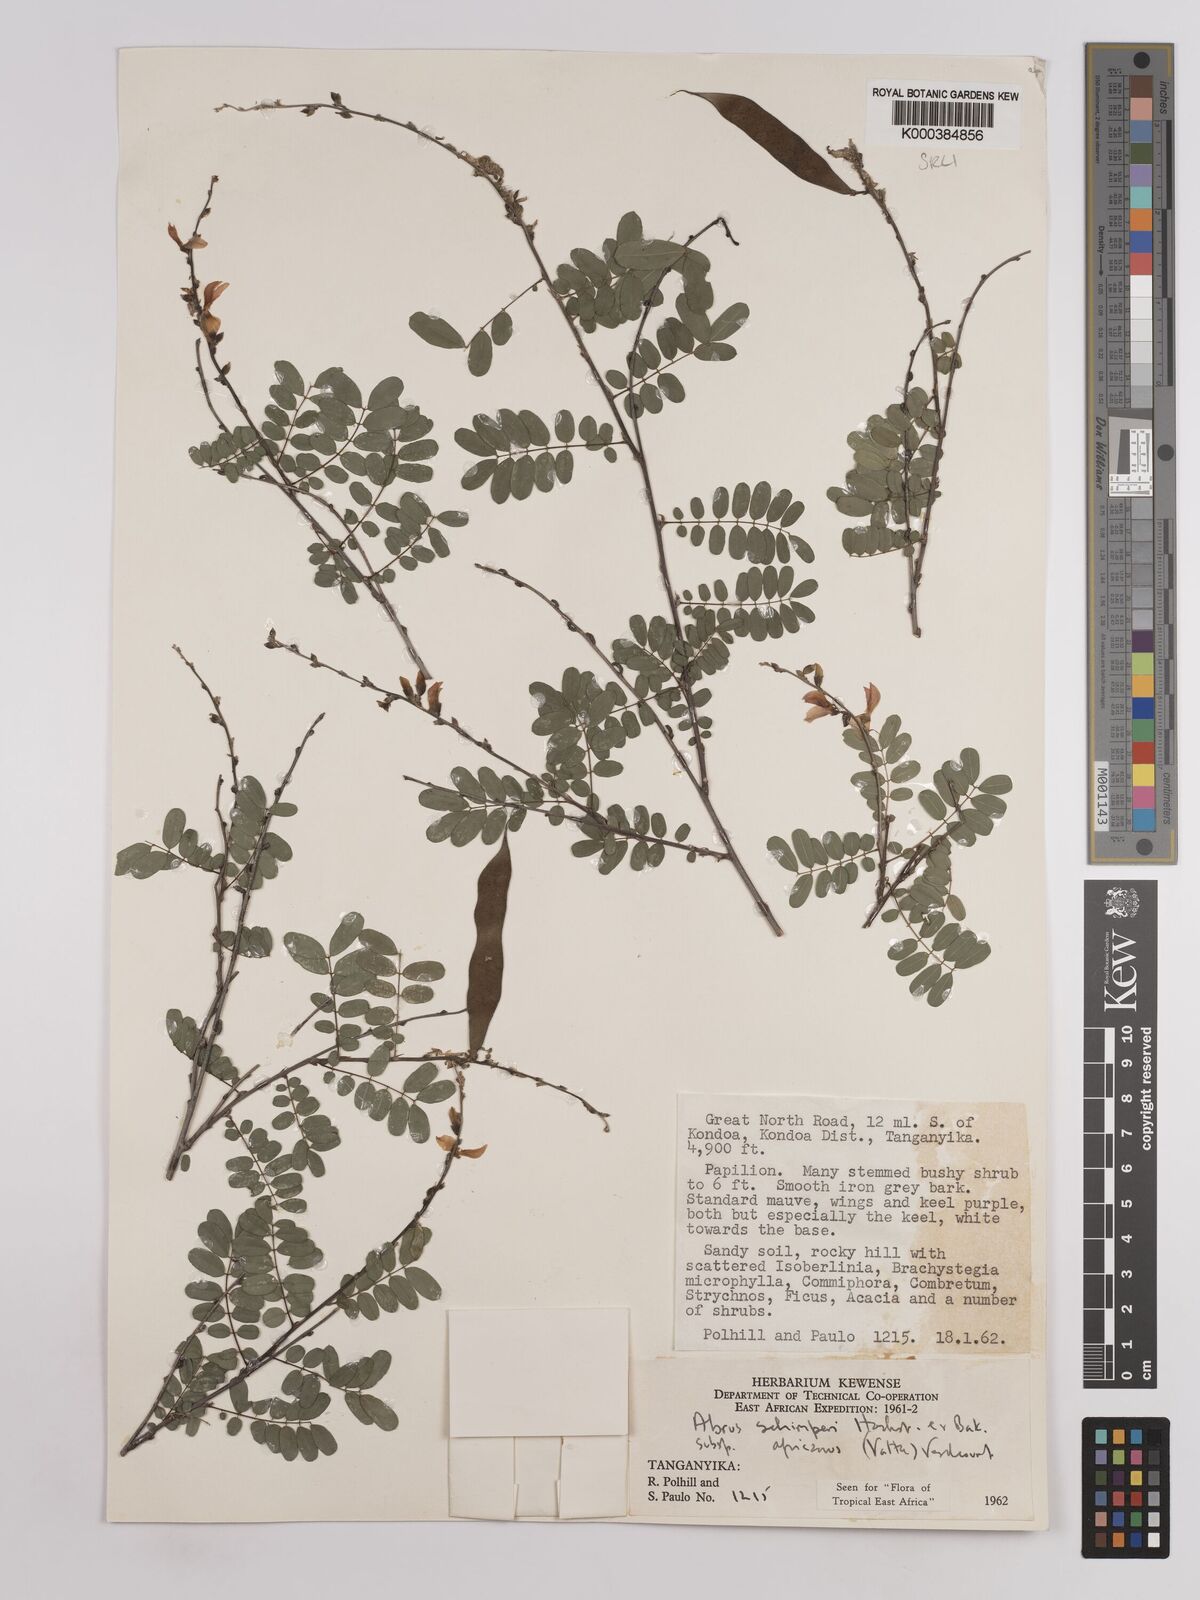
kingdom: Plantae
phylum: Tracheophyta
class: Magnoliopsida
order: Fabales
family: Fabaceae
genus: Abrus
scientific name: Abrus fruticulosus
